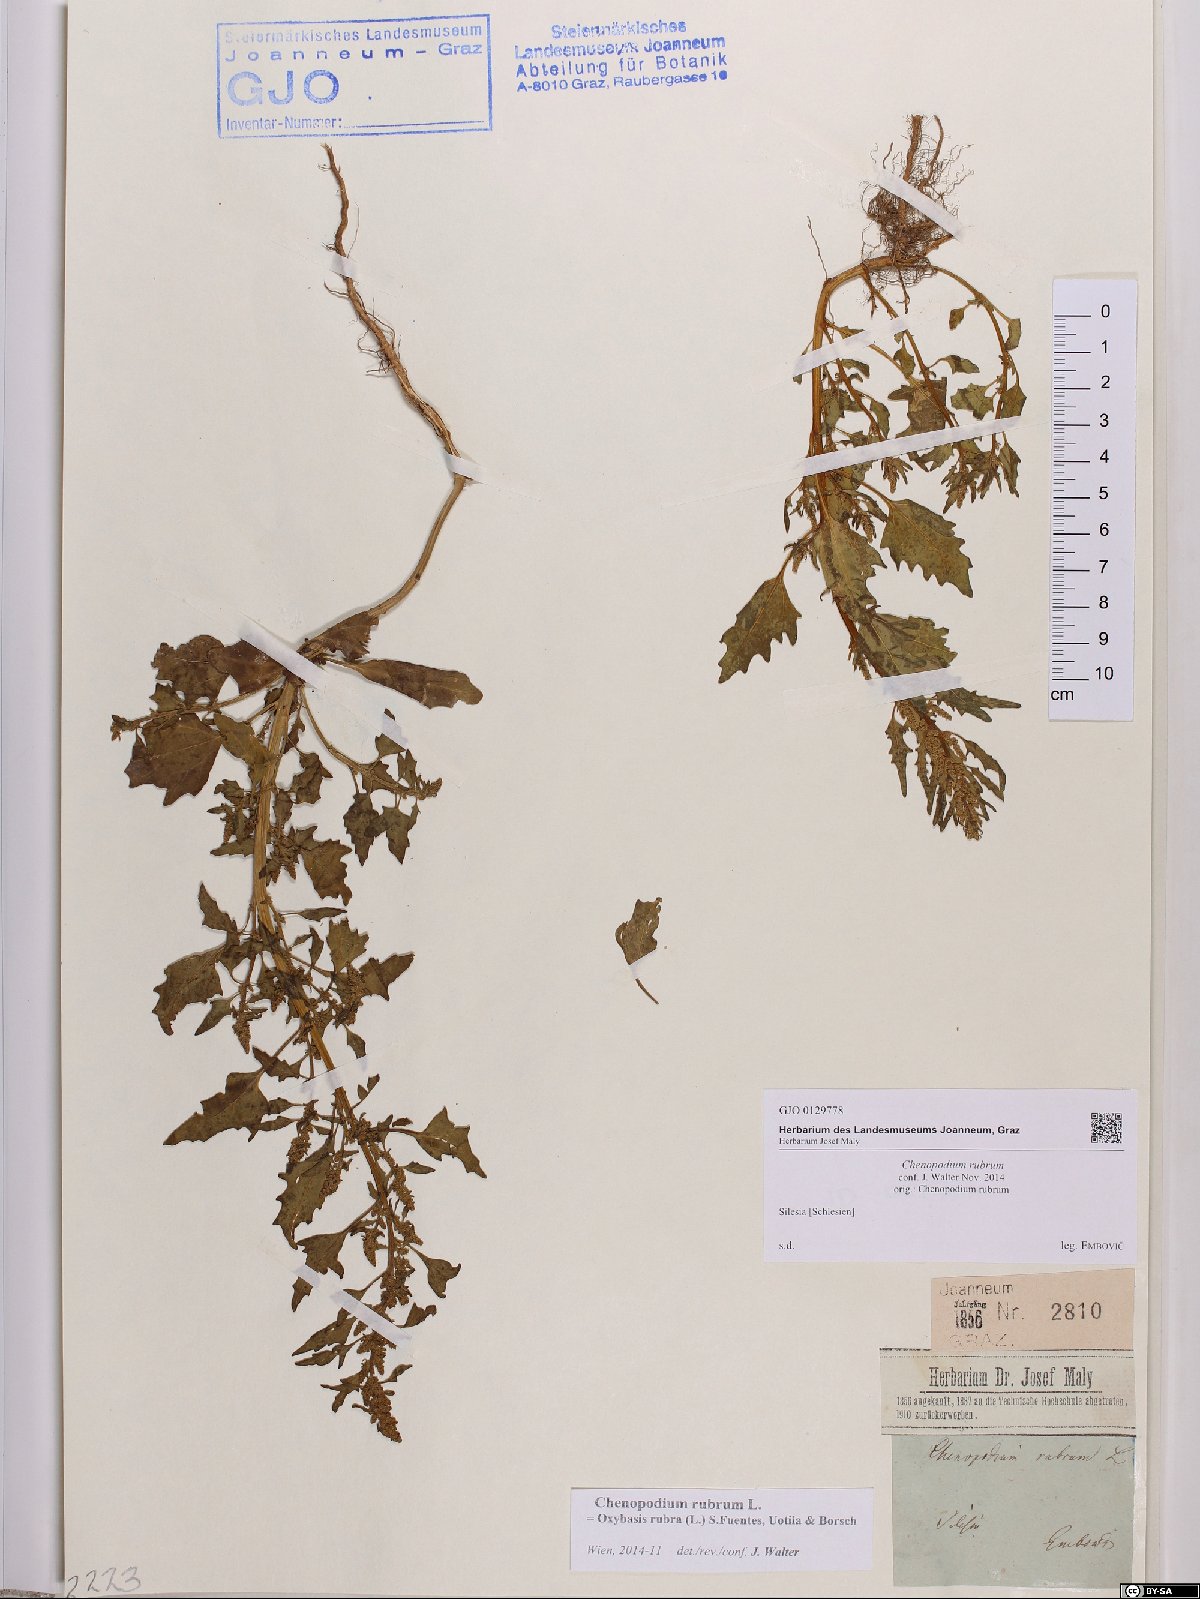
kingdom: Plantae
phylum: Tracheophyta
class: Magnoliopsida
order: Caryophyllales
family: Amaranthaceae
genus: Oxybasis
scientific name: Oxybasis rubra
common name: Red goosefoot
